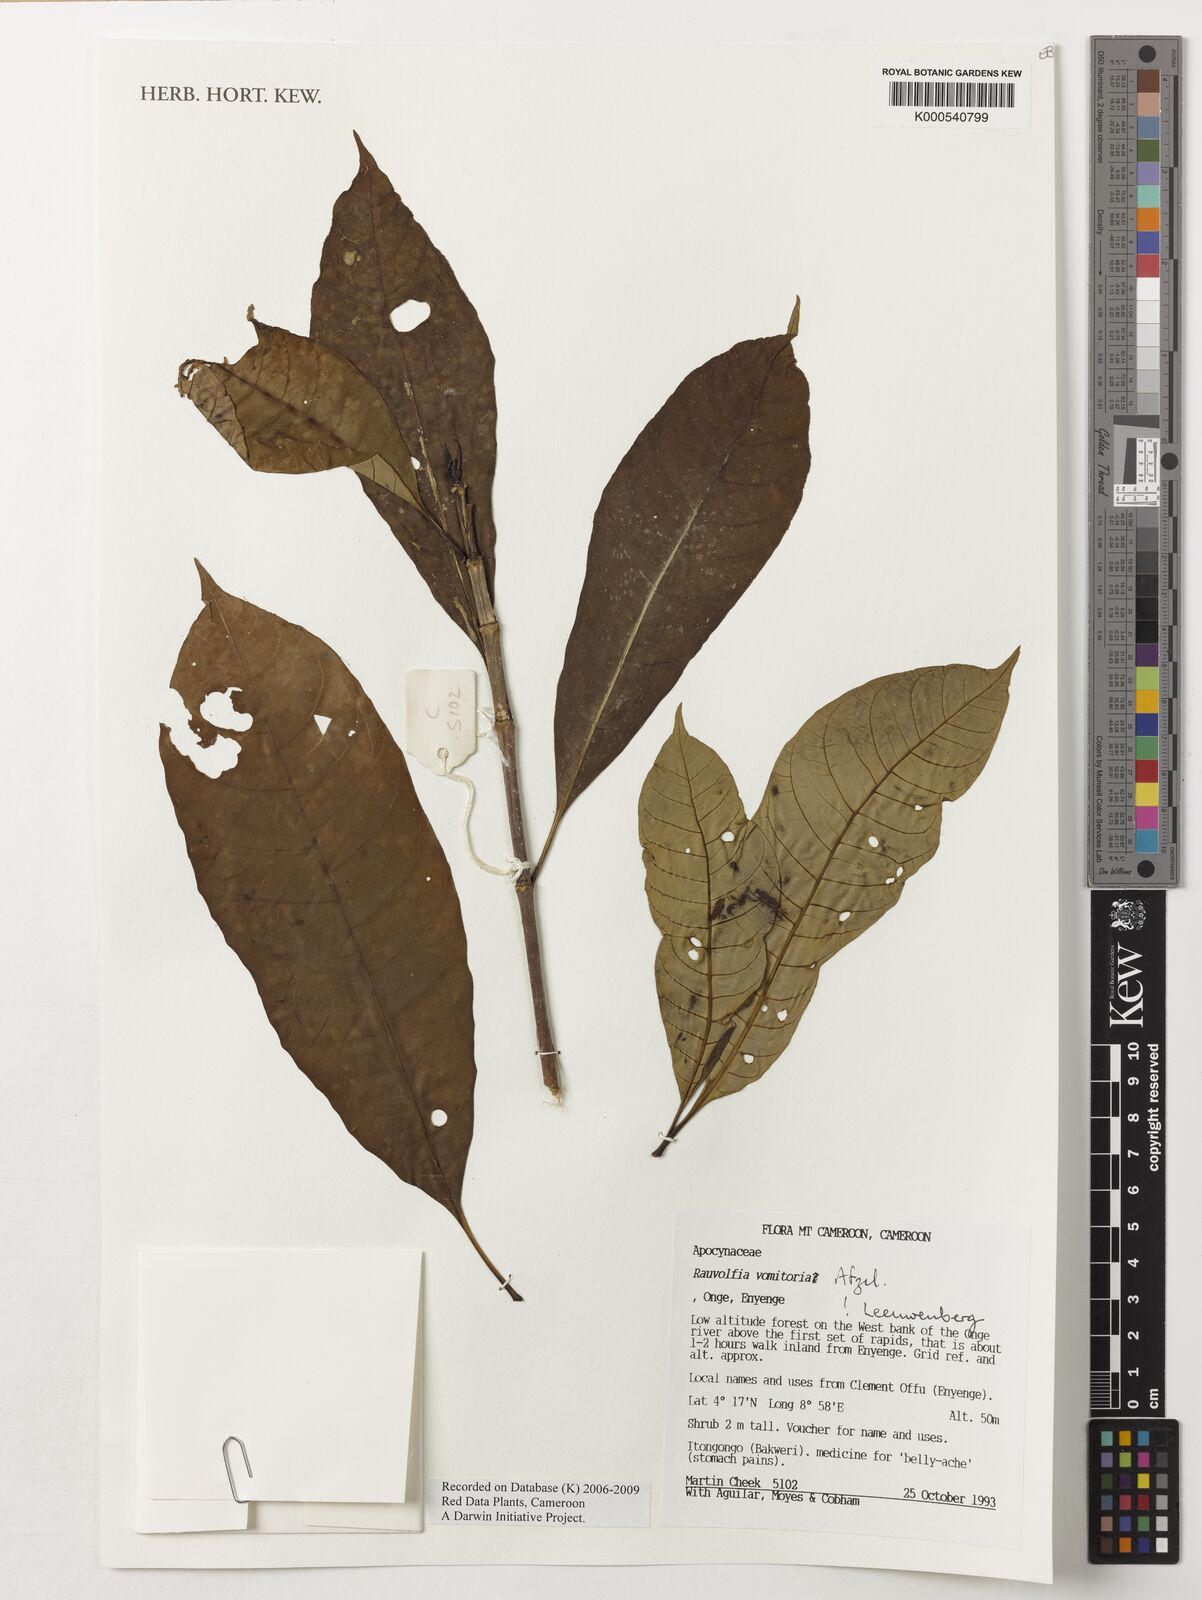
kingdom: Plantae
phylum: Tracheophyta
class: Magnoliopsida
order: Gentianales
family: Apocynaceae
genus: Rauvolfia
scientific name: Rauvolfia
